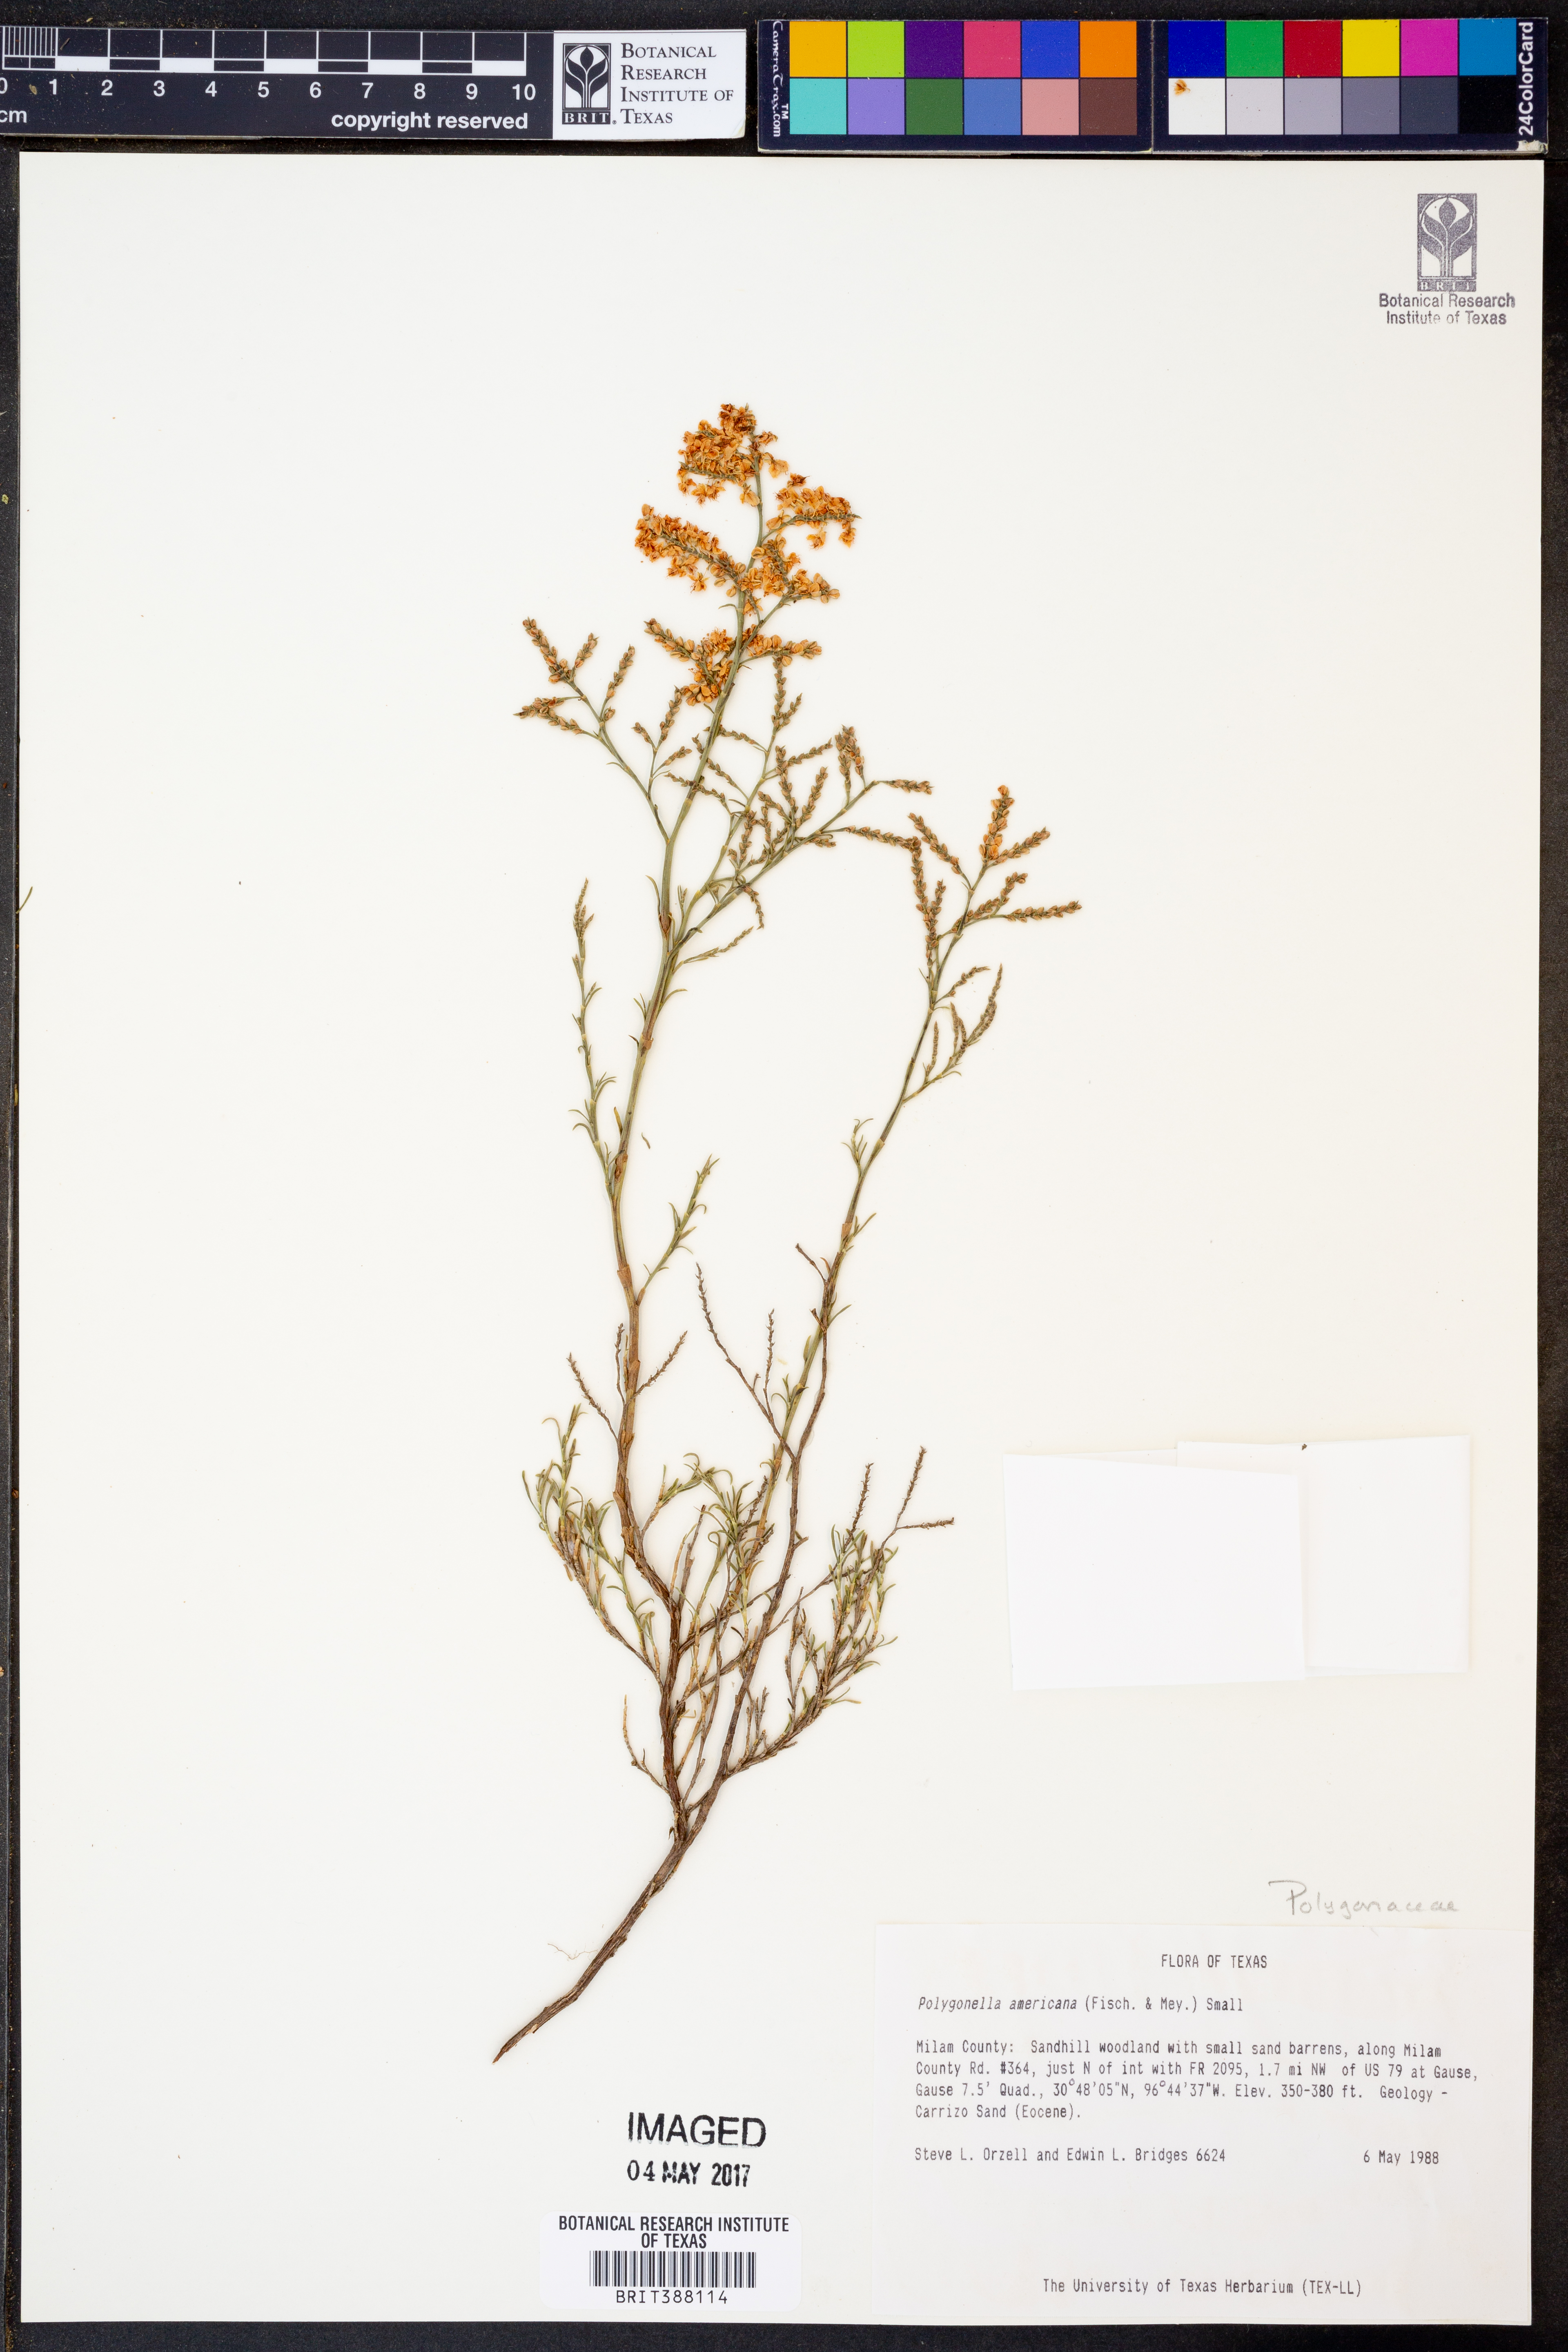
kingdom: Plantae
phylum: Tracheophyta
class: Magnoliopsida
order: Caryophyllales
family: Polygonaceae
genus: Polygonella
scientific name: Polygonella americana
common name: Southern jointweed
